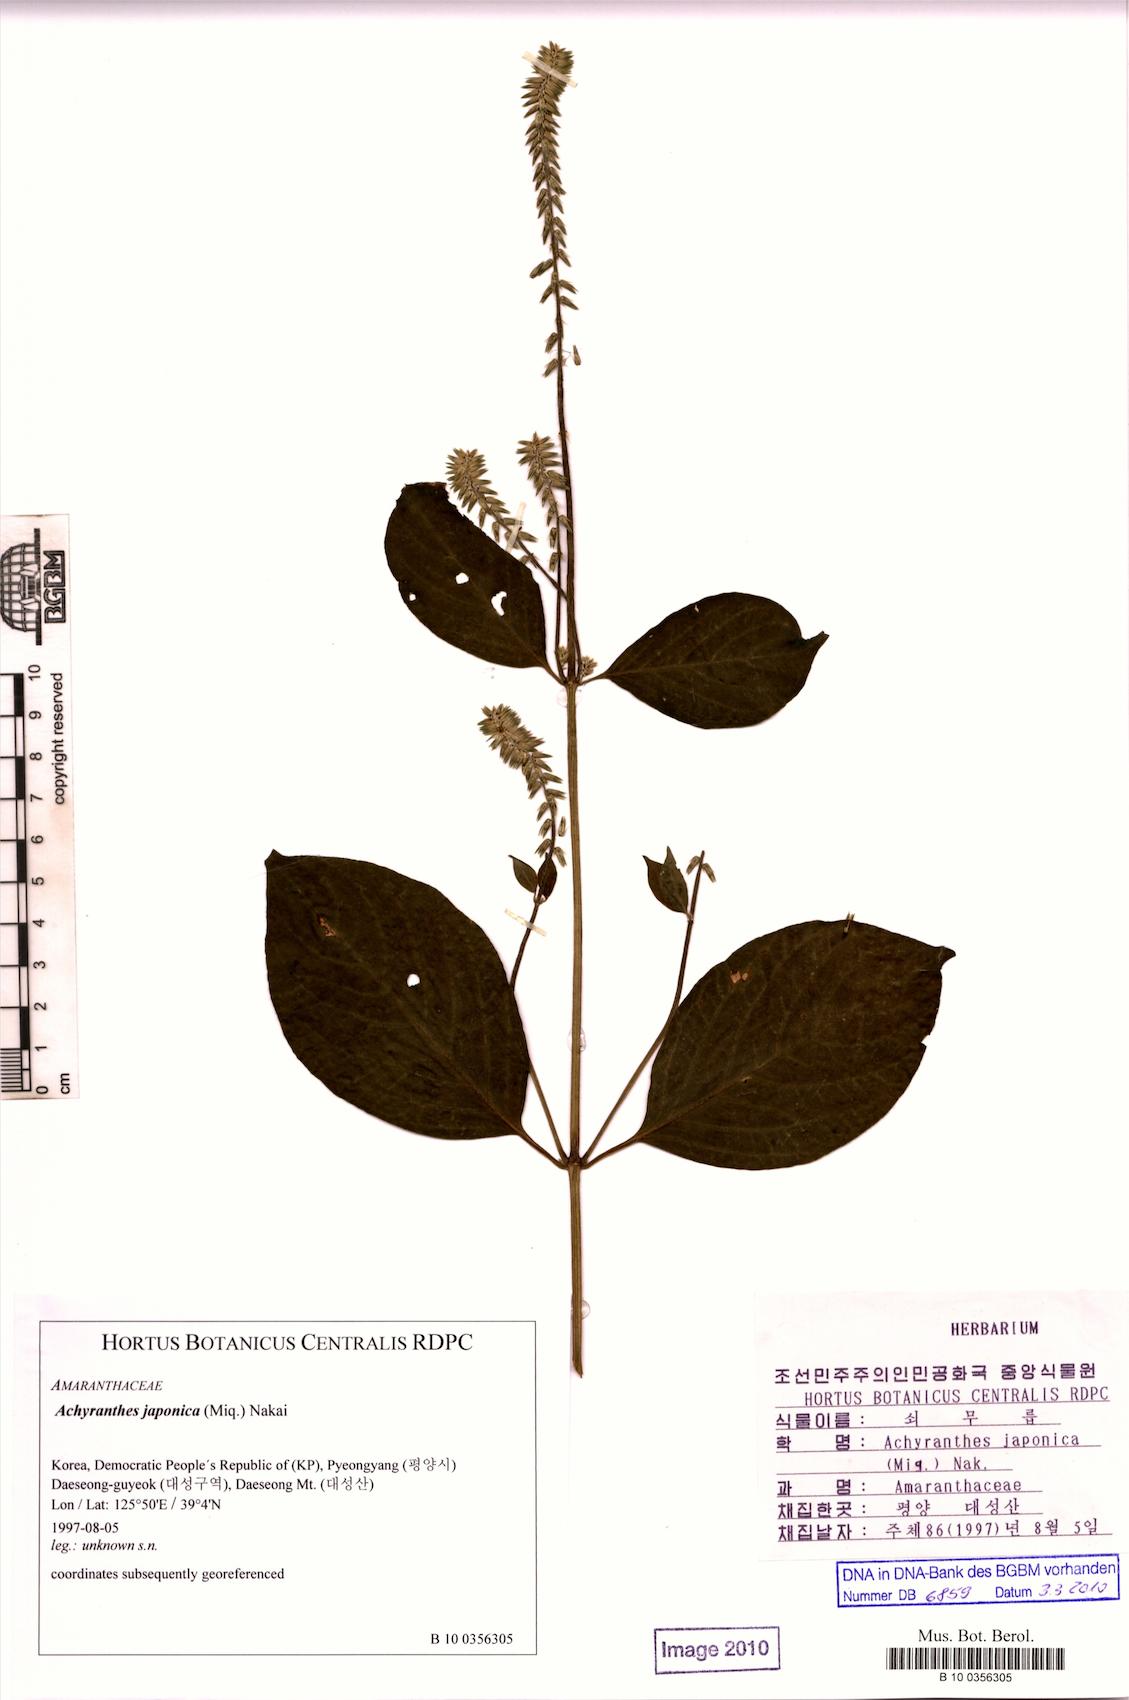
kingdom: Plantae
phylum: Tracheophyta
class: Magnoliopsida
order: Caryophyllales
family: Amaranthaceae
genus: Achyranthes
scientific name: Achyranthes bidentata
